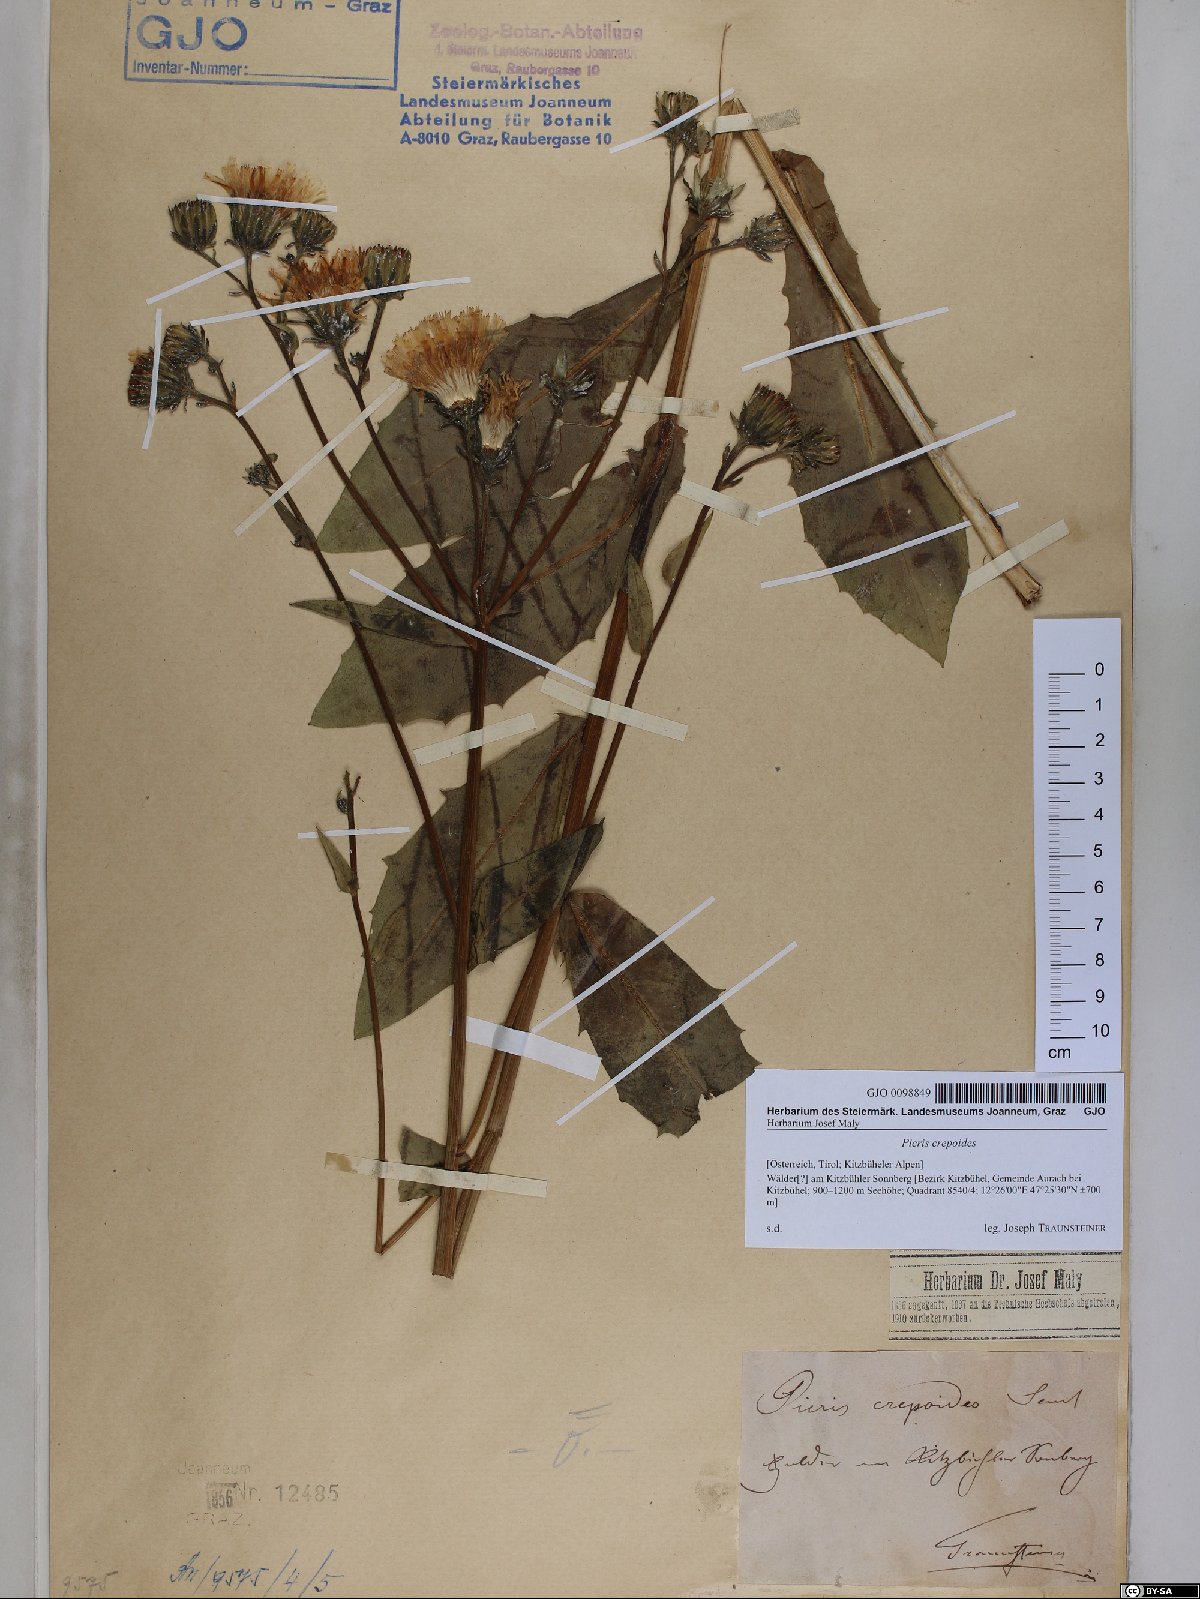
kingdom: Plantae
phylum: Tracheophyta
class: Magnoliopsida
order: Asterales
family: Asteraceae
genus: Picris
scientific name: Picris hieracioides
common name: Hawkweed oxtongue
